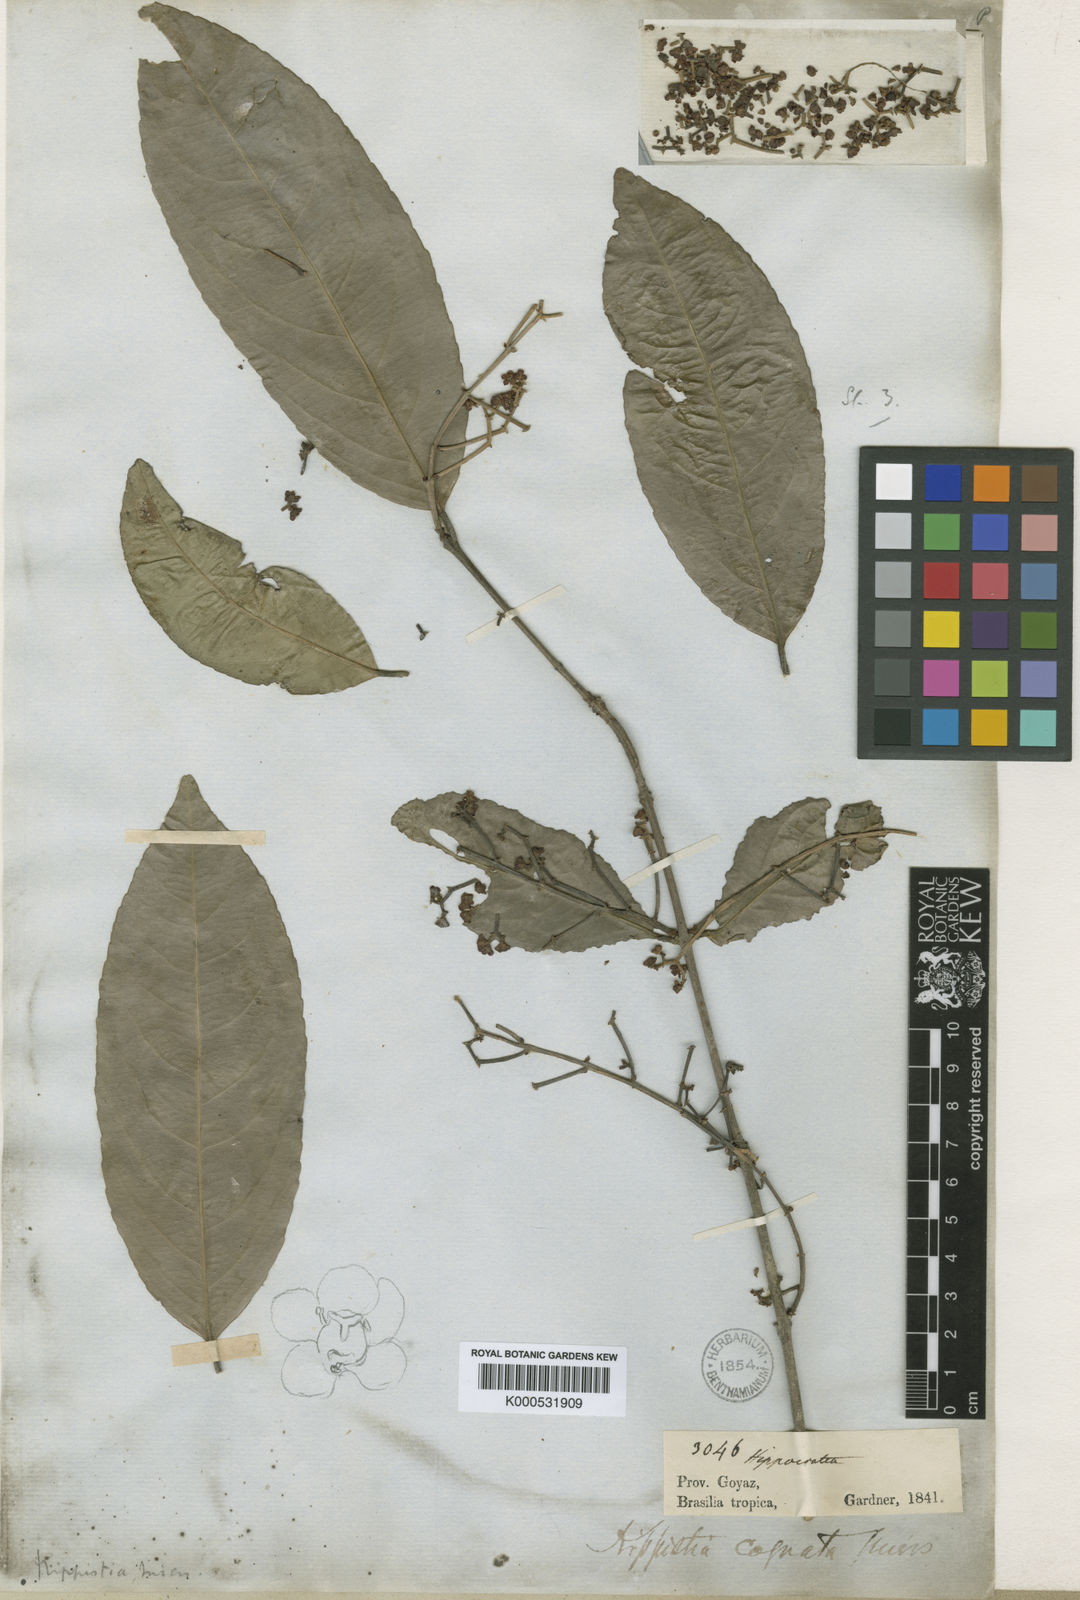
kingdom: Plantae
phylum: Tracheophyta
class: Magnoliopsida
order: Celastrales
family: Celastraceae
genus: Cheiloclinium
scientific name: Cheiloclinium cognatum
